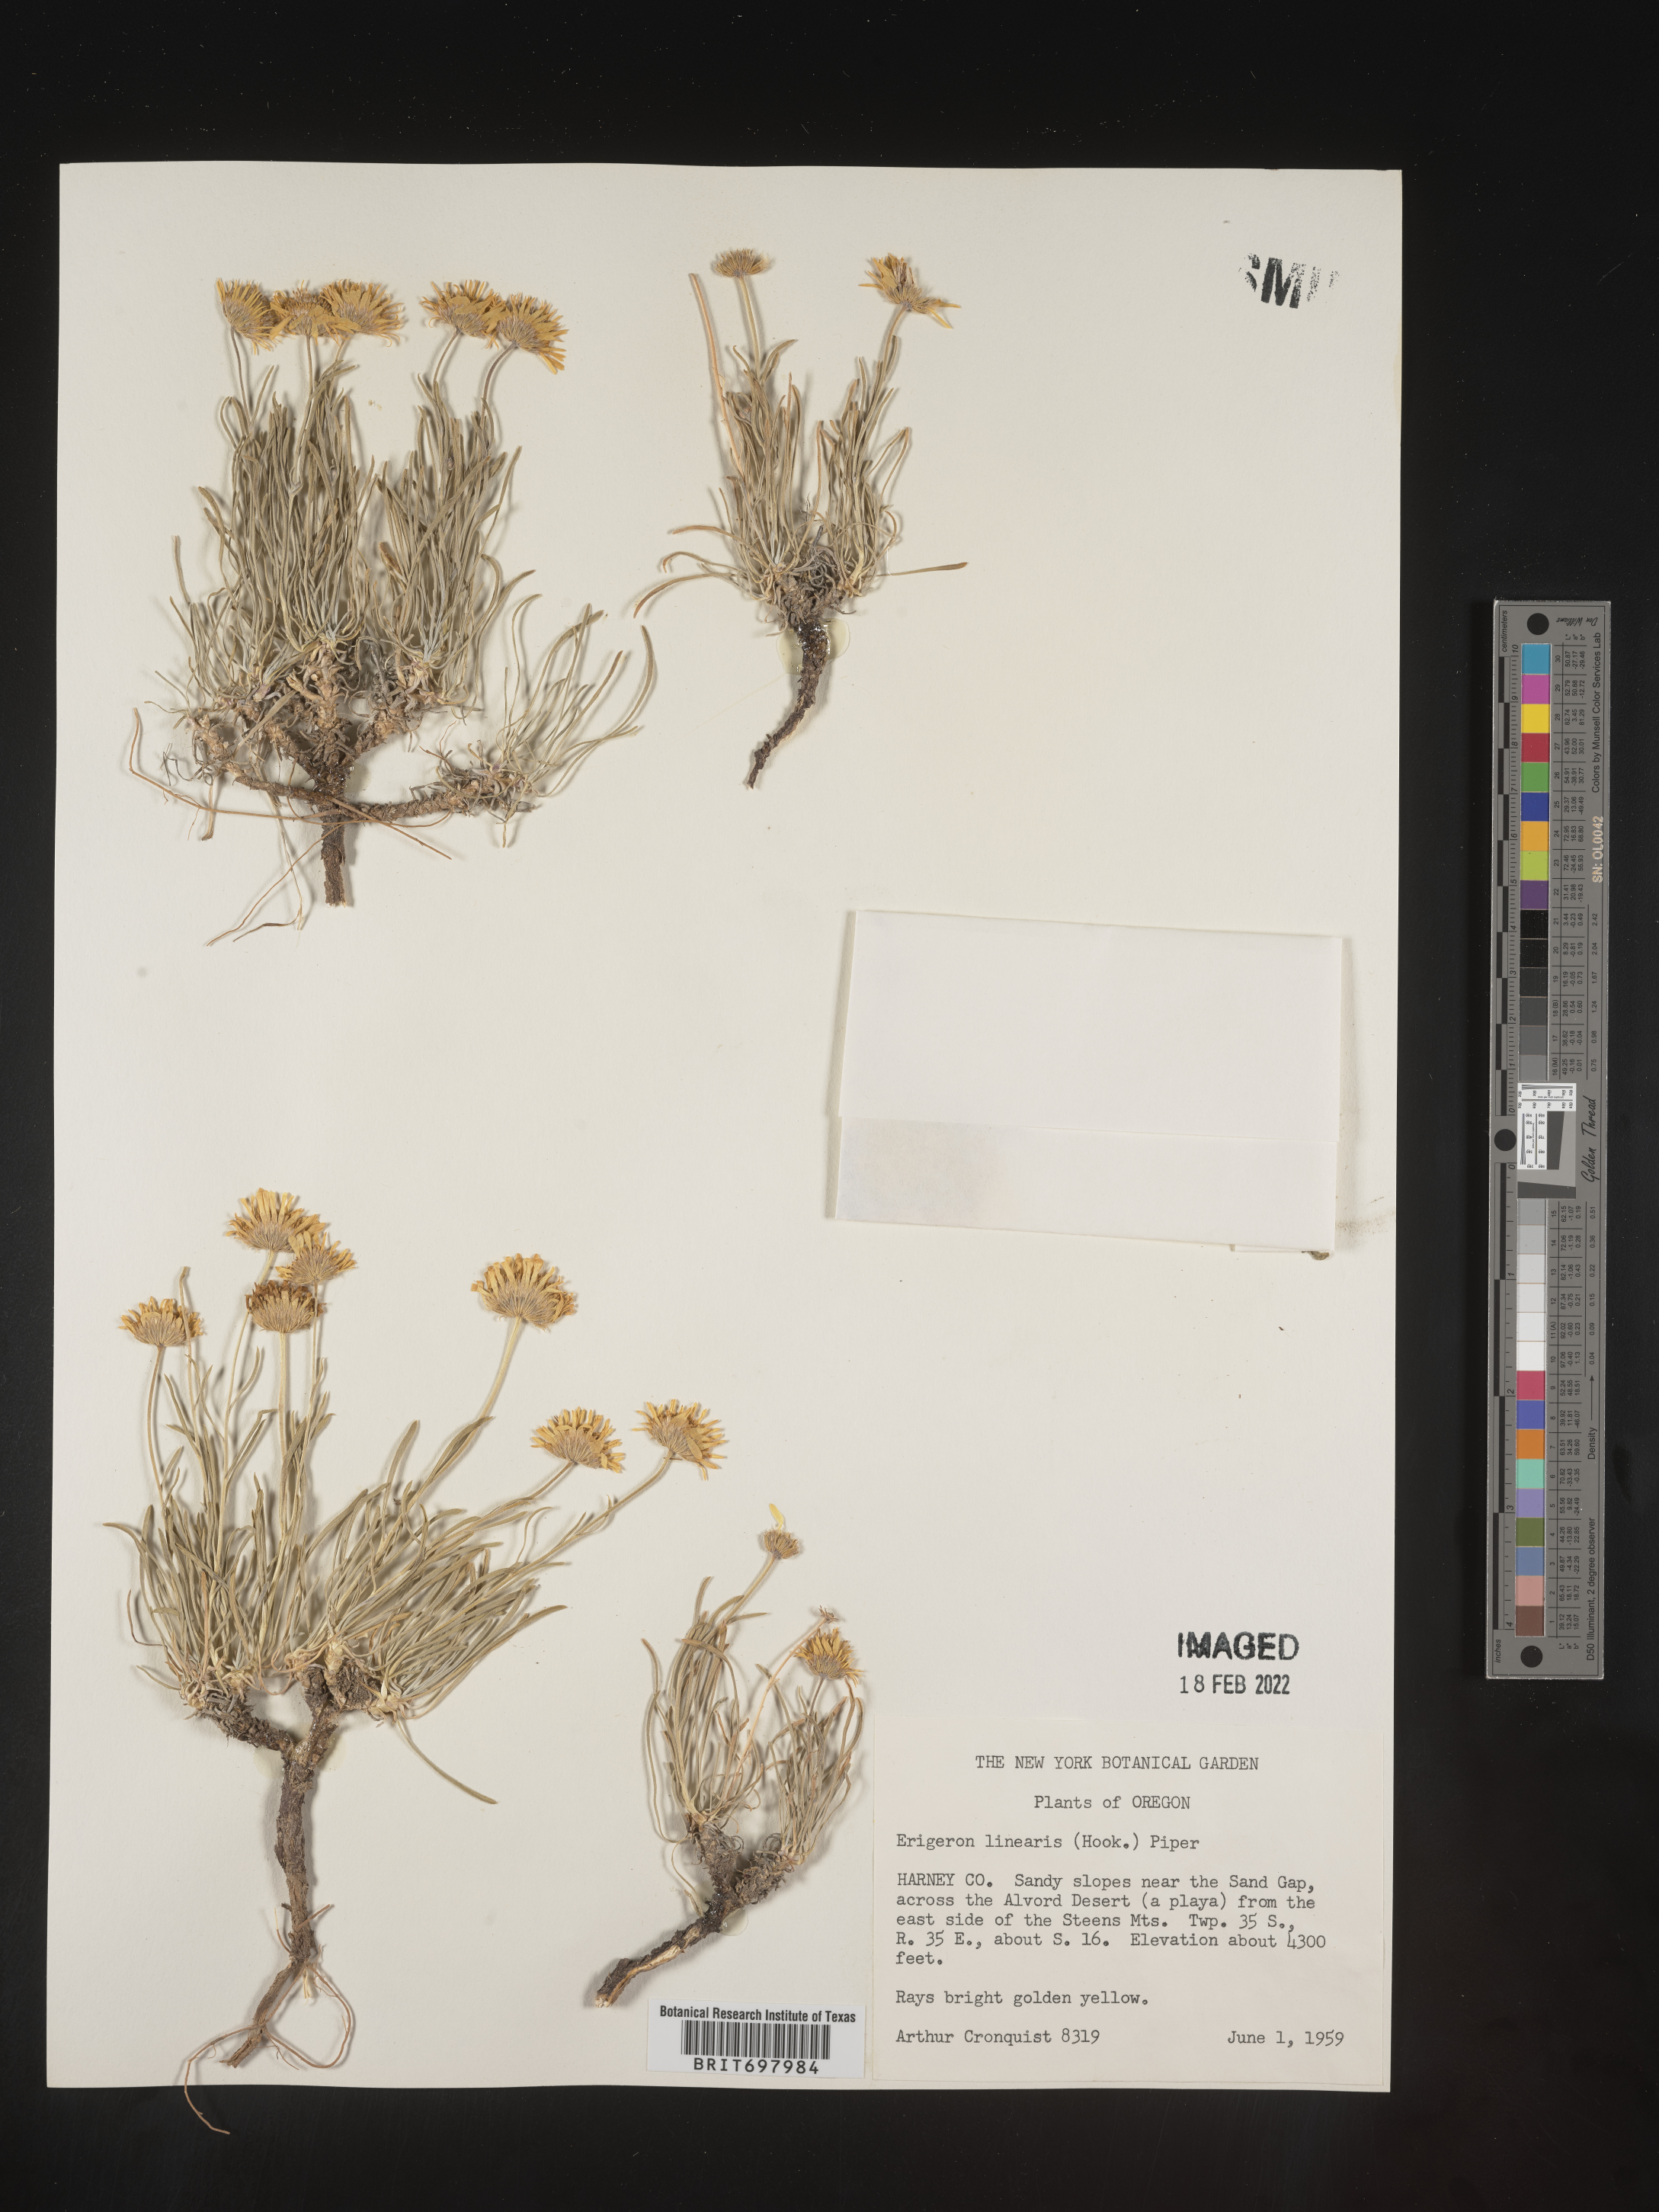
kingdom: Plantae
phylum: Tracheophyta
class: Magnoliopsida
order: Asterales
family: Asteraceae
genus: Erigeron
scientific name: Erigeron linearis
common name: Desert yellow fleabane
